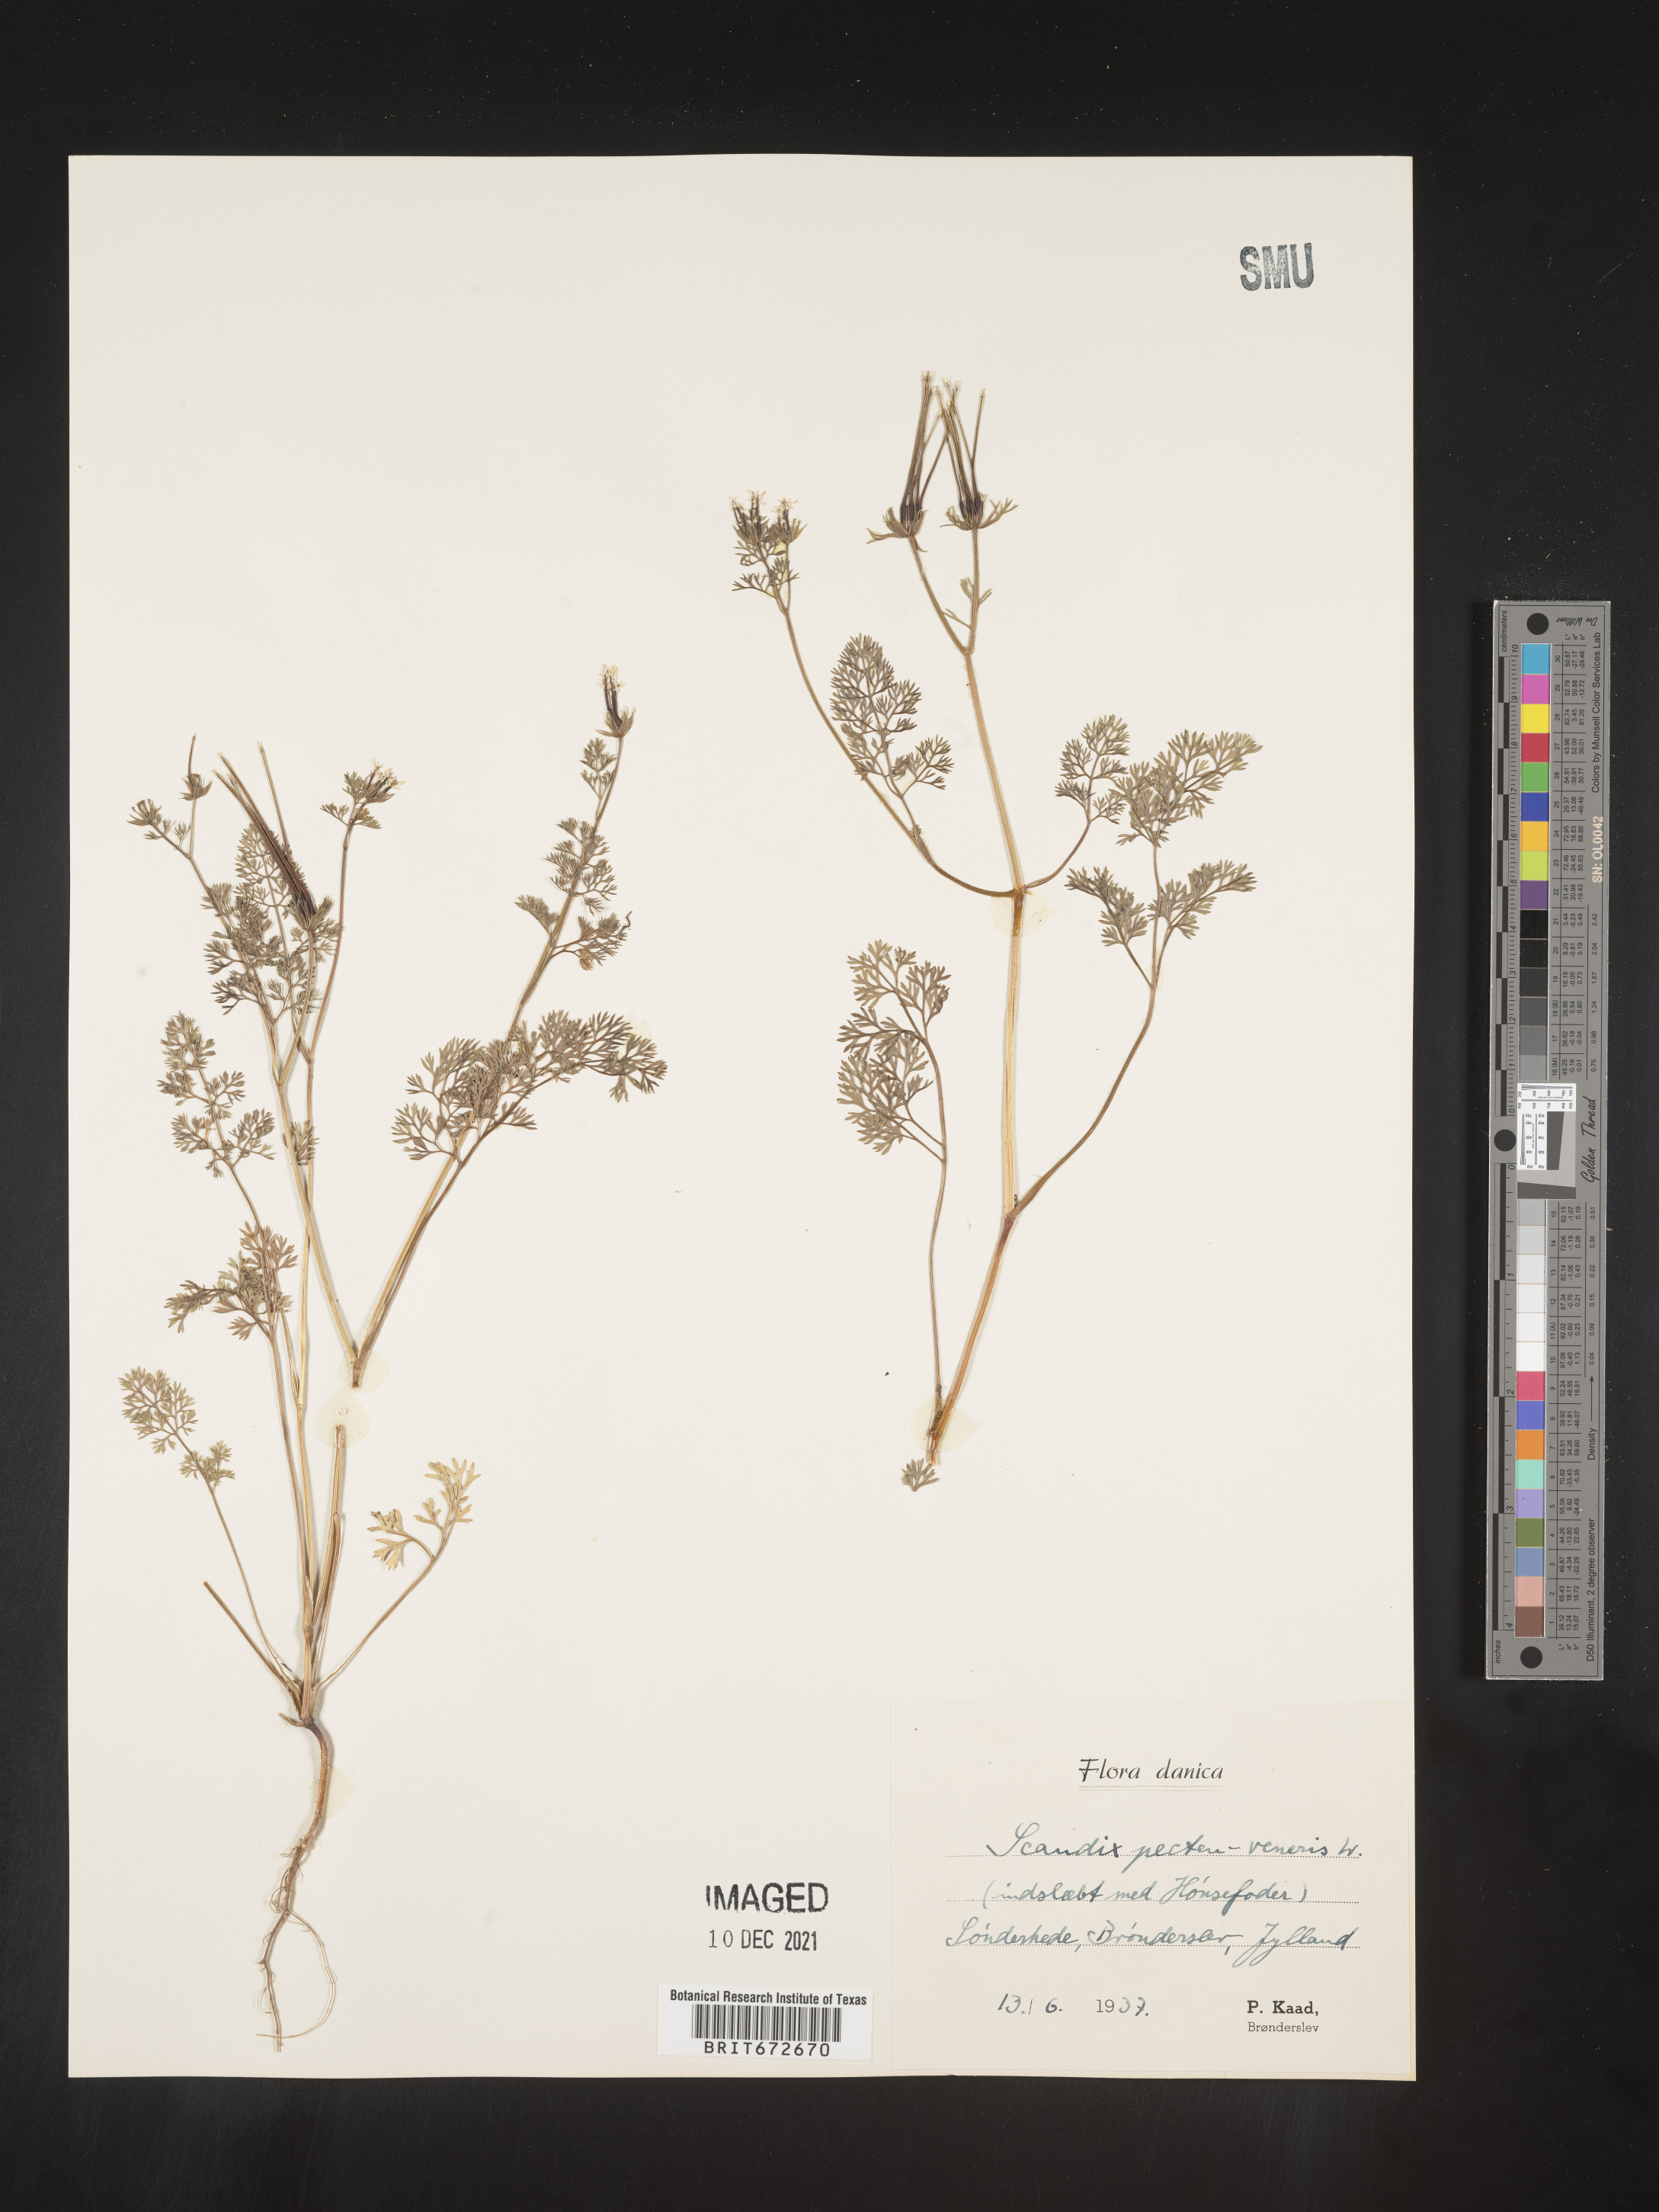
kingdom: Plantae
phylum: Tracheophyta
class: Magnoliopsida
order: Apiales
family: Apiaceae
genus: Scandix
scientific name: Scandix
